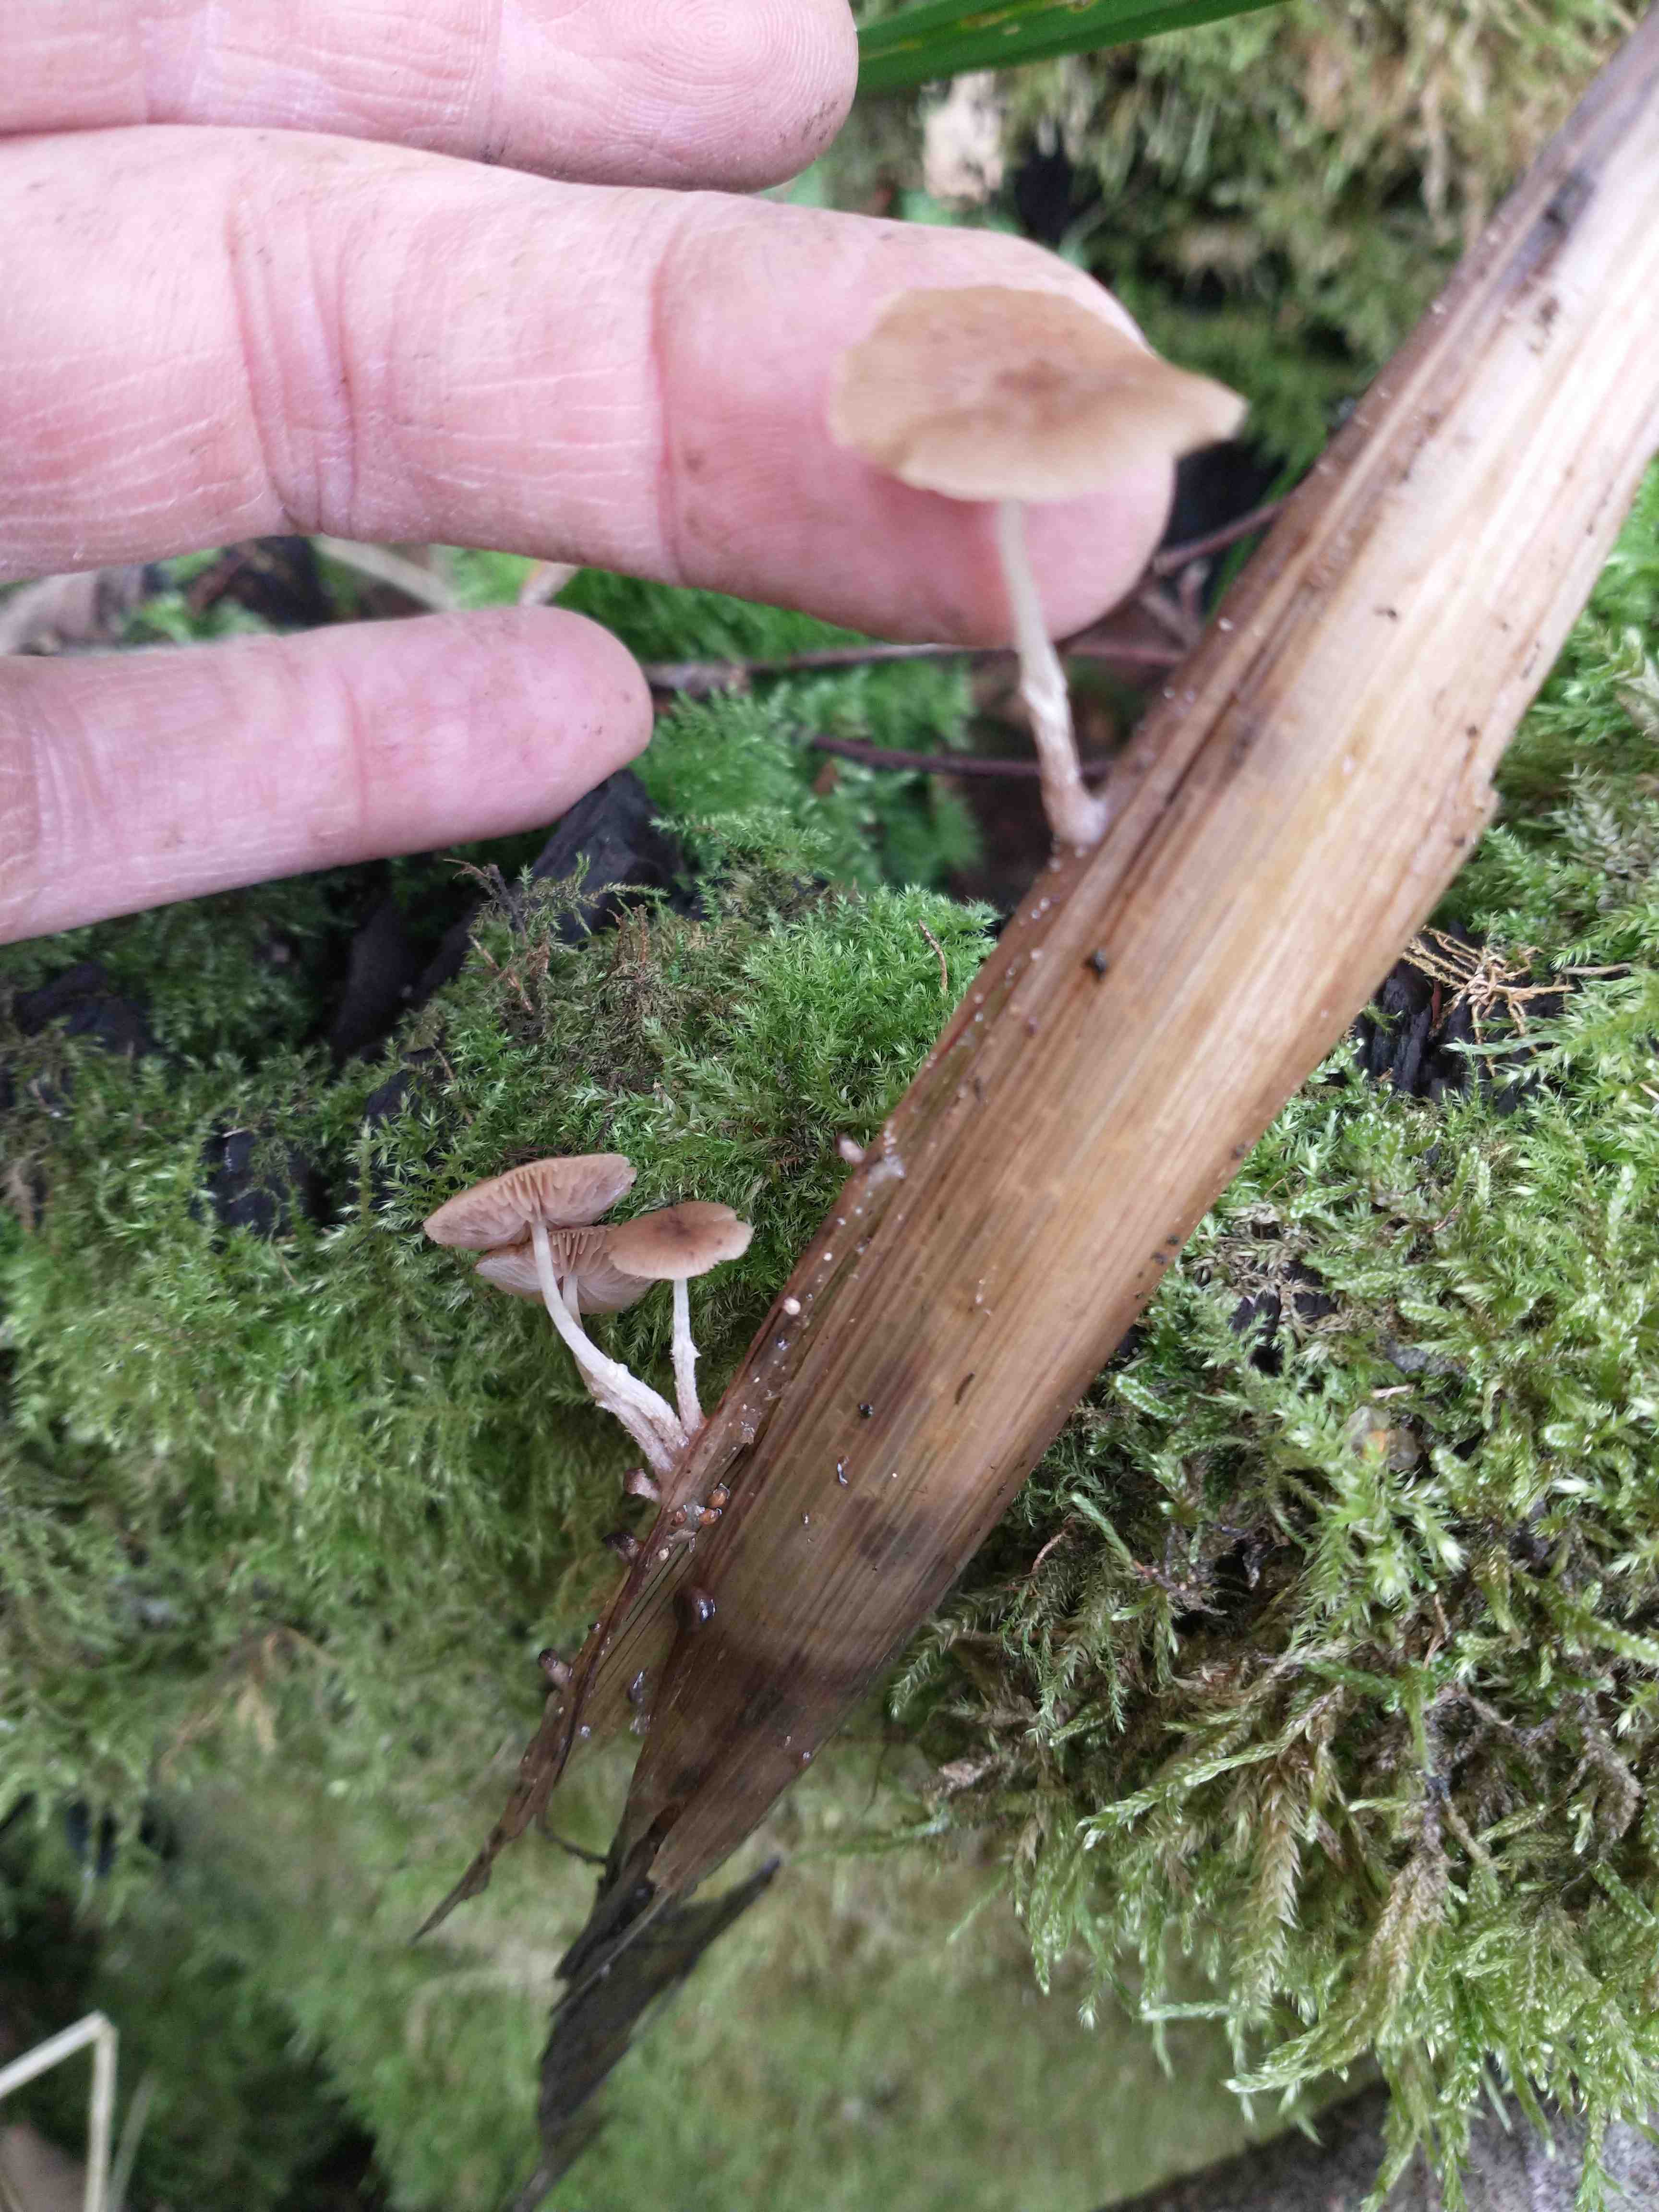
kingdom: Fungi
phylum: Basidiomycota
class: Agaricomycetes
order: Agaricales
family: Psathyrellaceae
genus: Candolleomyces
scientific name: Candolleomyces typhae
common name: dunhammer-mørkhat
